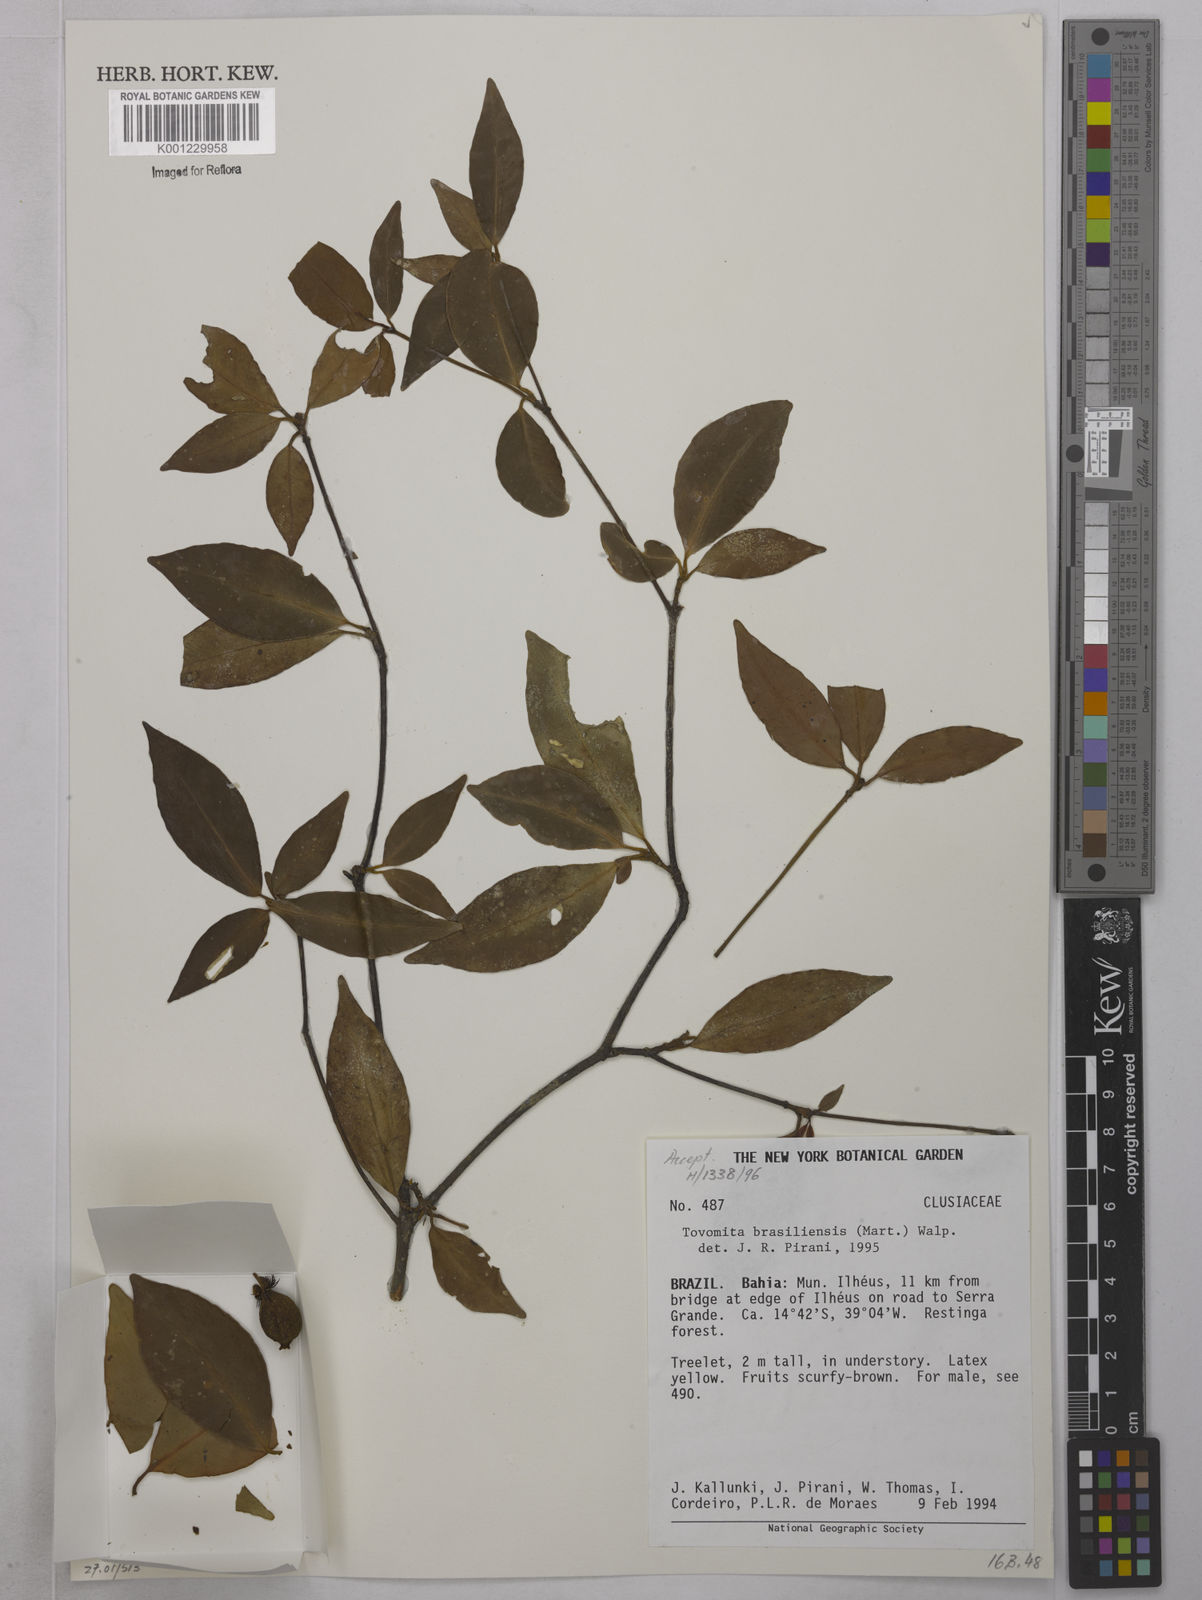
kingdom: Plantae
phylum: Tracheophyta
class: Magnoliopsida
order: Malpighiales
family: Clusiaceae
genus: Tovomita
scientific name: Tovomita
